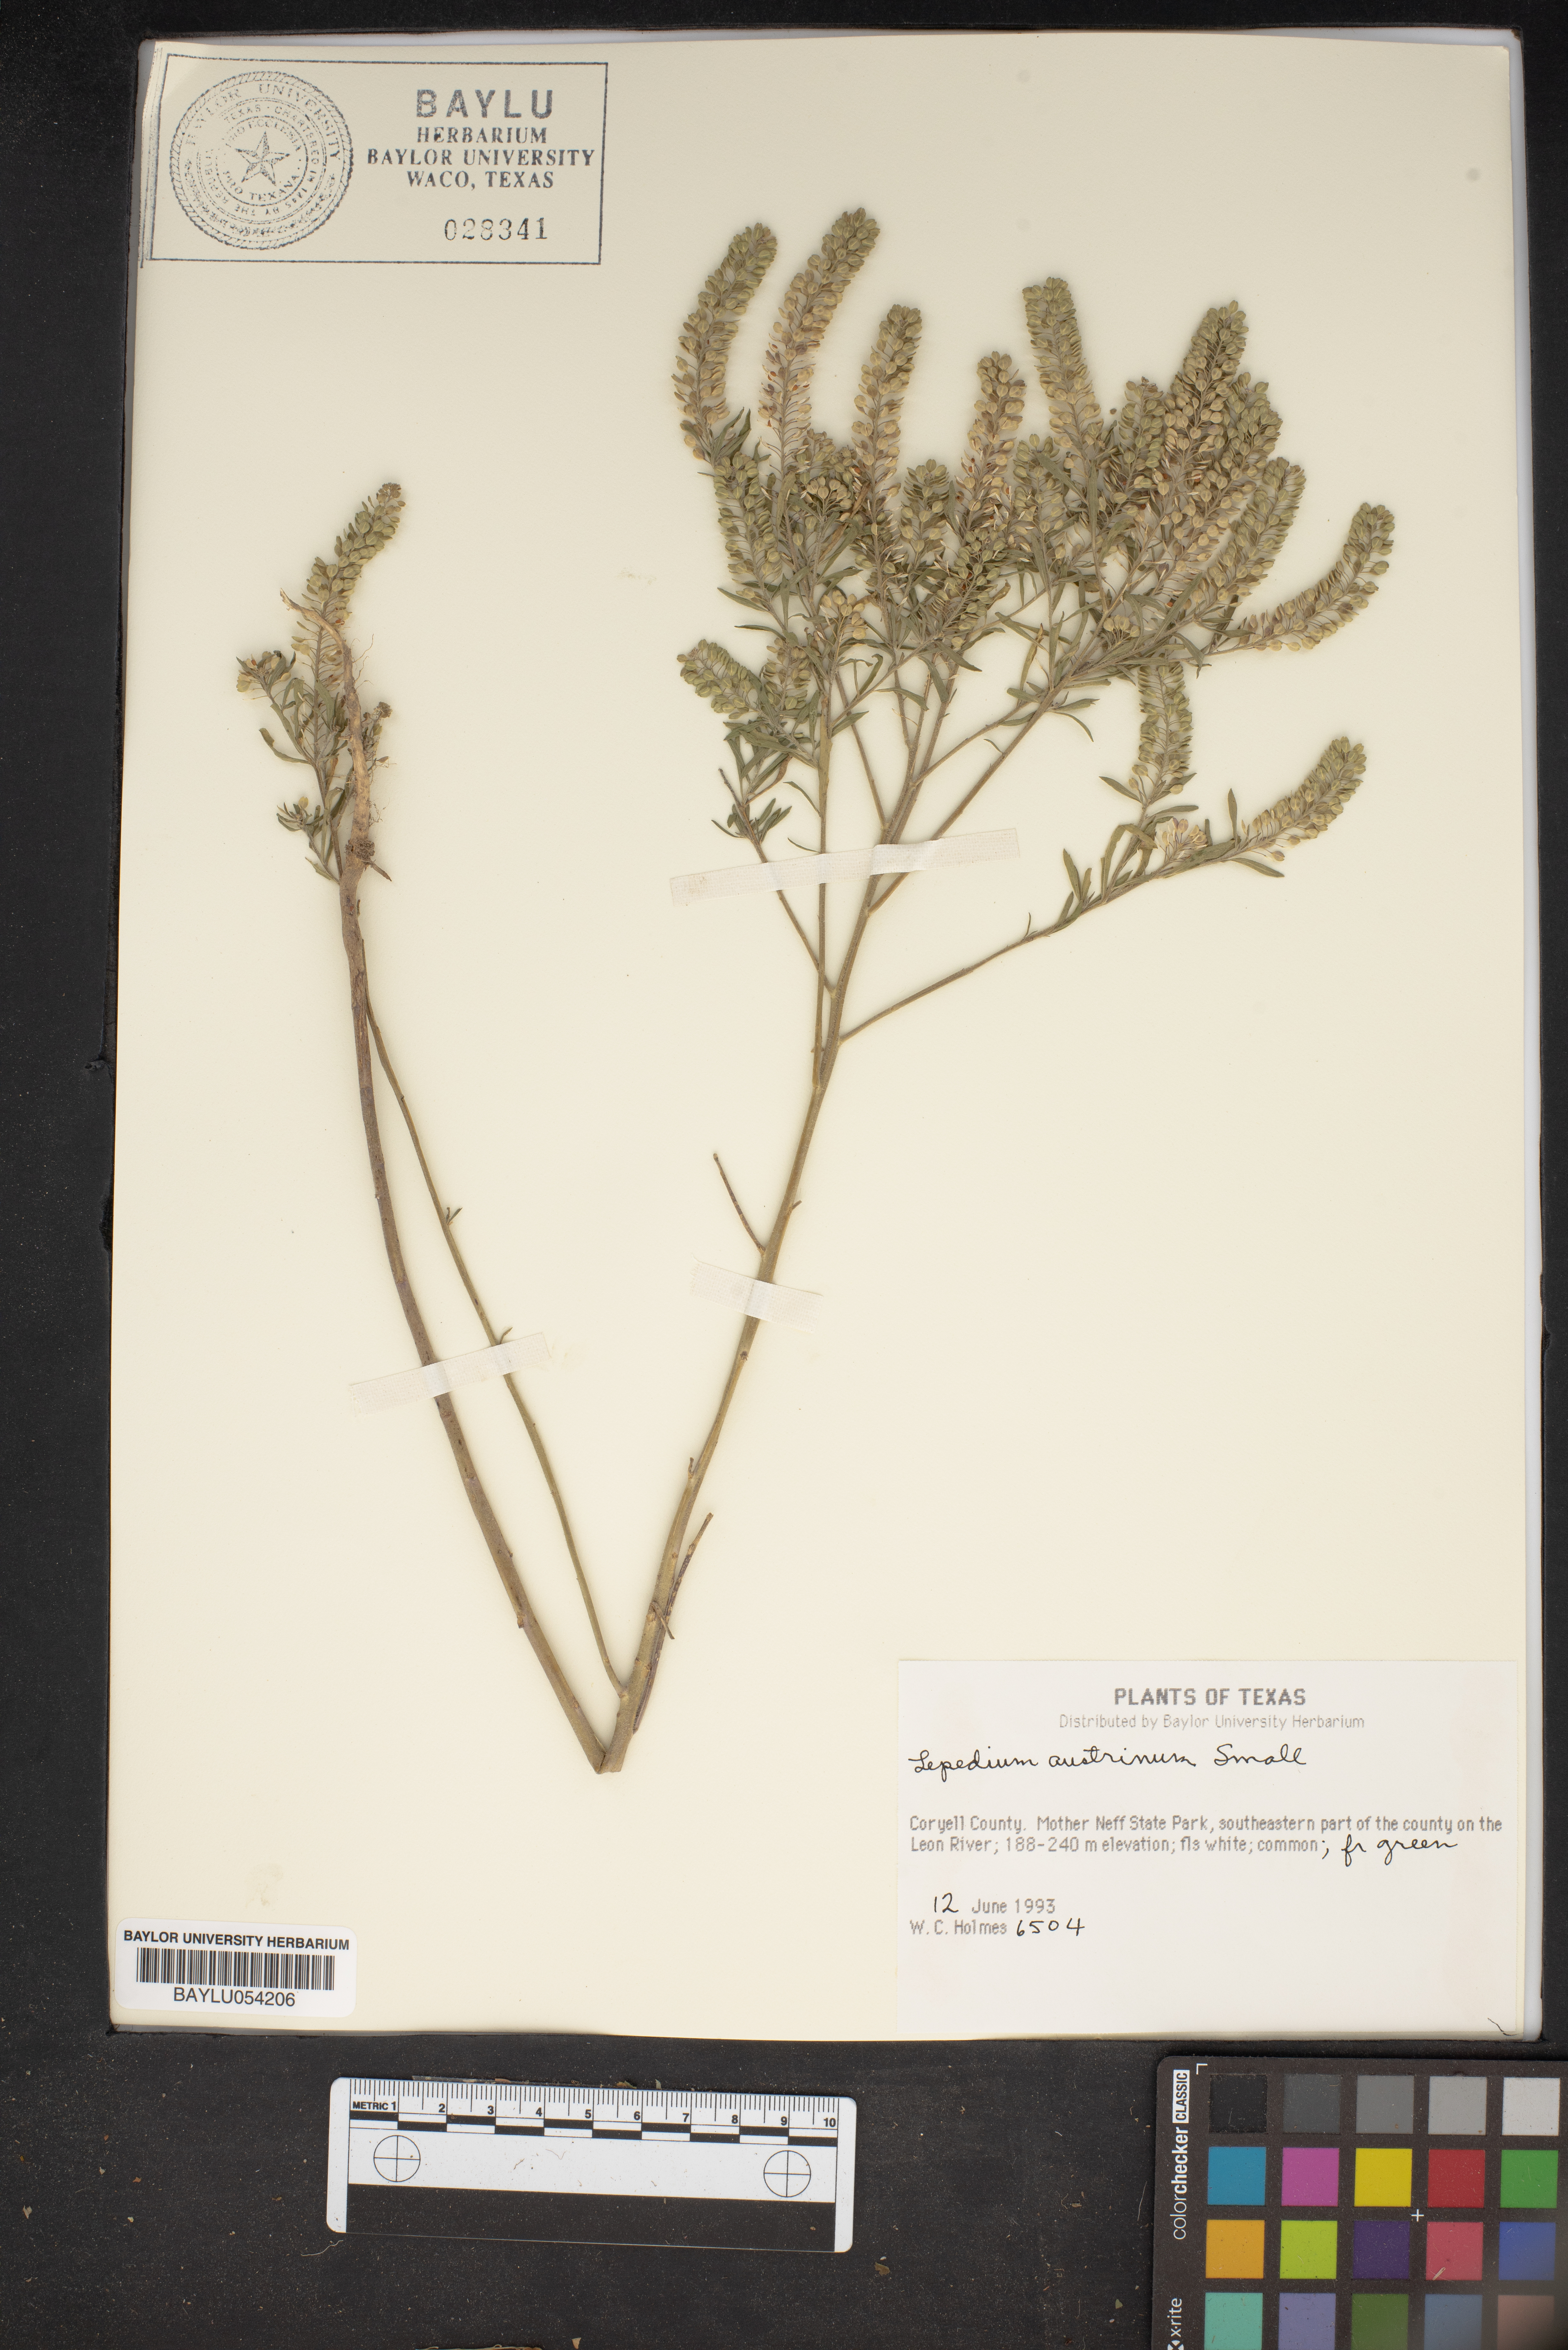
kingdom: Plantae
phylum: Tracheophyta
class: Magnoliopsida
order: Brassicales
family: Brassicaceae
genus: Lepidium
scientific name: Lepidium austrinum
